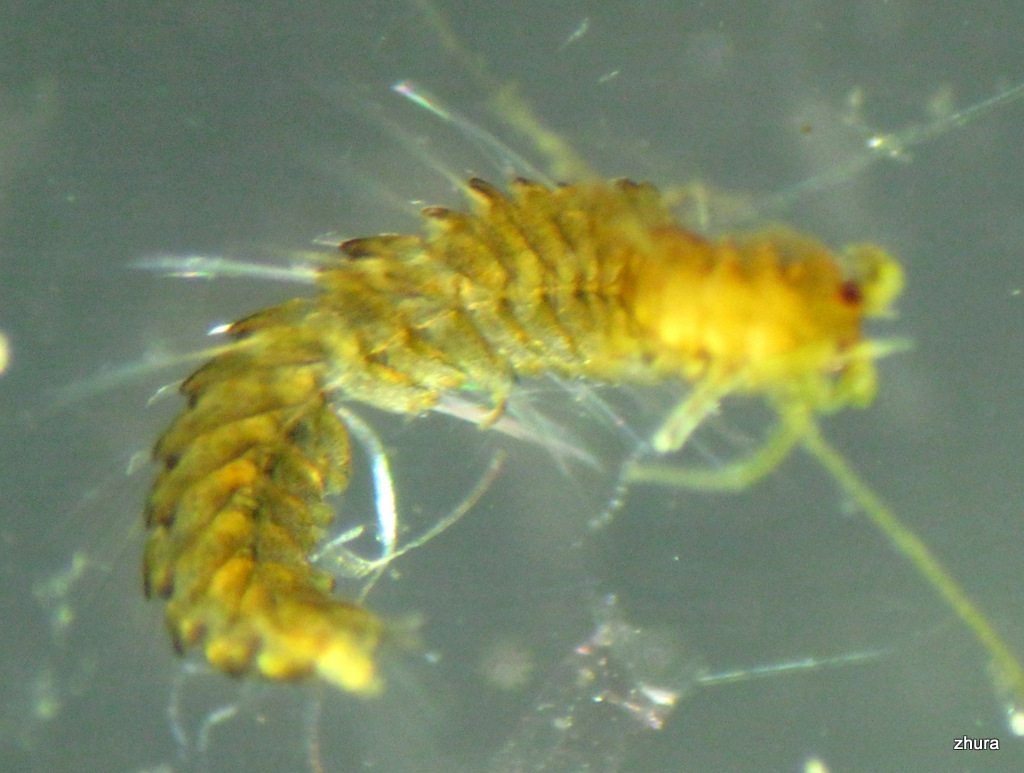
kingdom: Animalia
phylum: Annelida
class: Polychaeta
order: Phyllodocida
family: Syllidae
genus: Proceraea
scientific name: Proceraea prismatica
